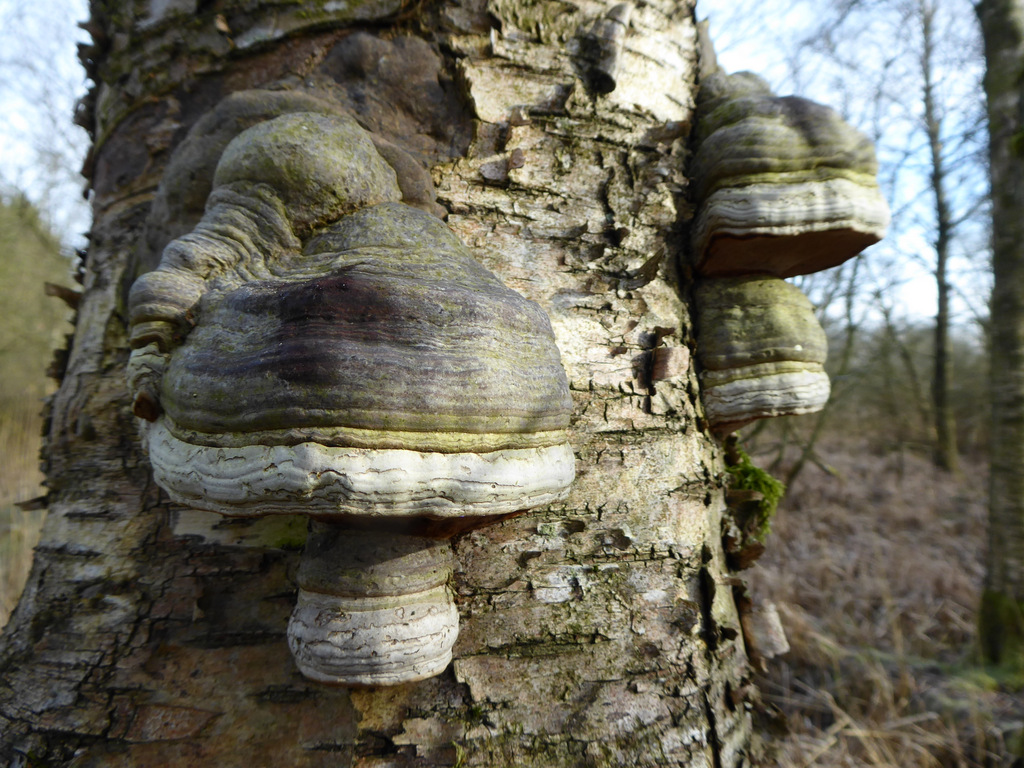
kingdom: Fungi
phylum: Basidiomycota
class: Agaricomycetes
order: Polyporales
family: Polyporaceae
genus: Fomes
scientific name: Fomes fomentarius
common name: tøndersvamp
